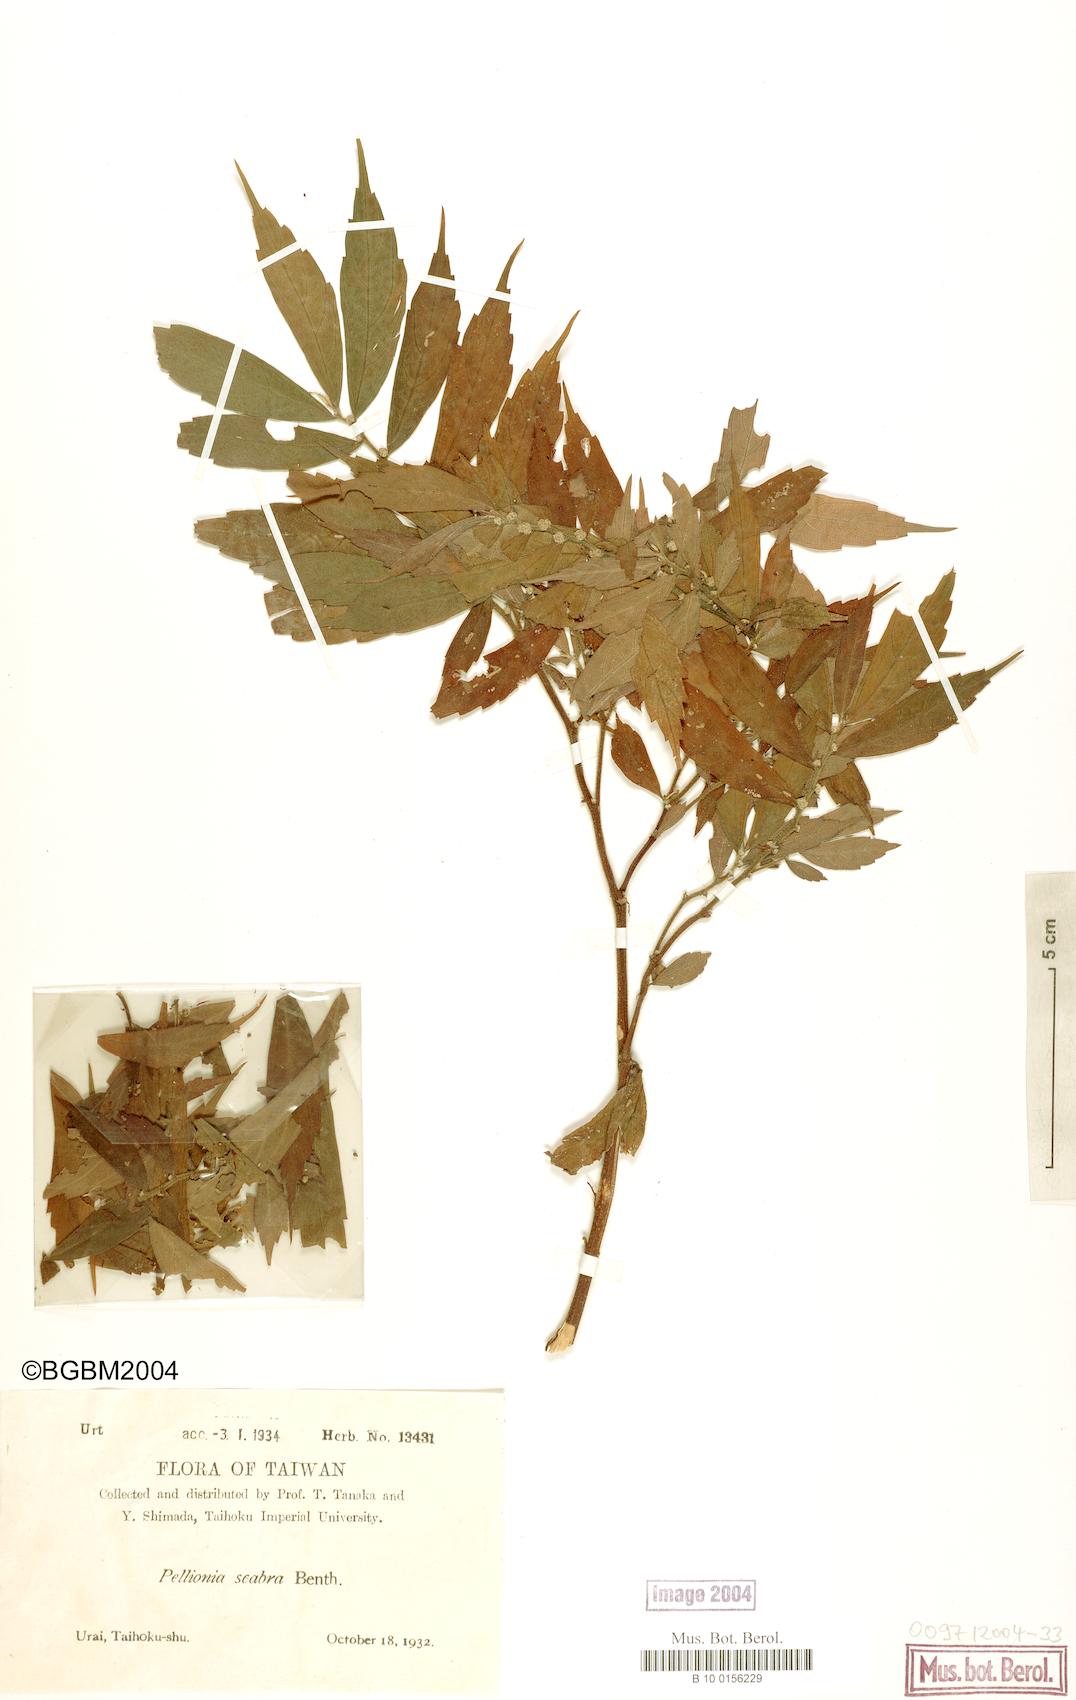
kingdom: Plantae
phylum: Tracheophyta
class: Magnoliopsida
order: Rosales
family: Urticaceae
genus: Elatostema
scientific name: Elatostema sinuatum
